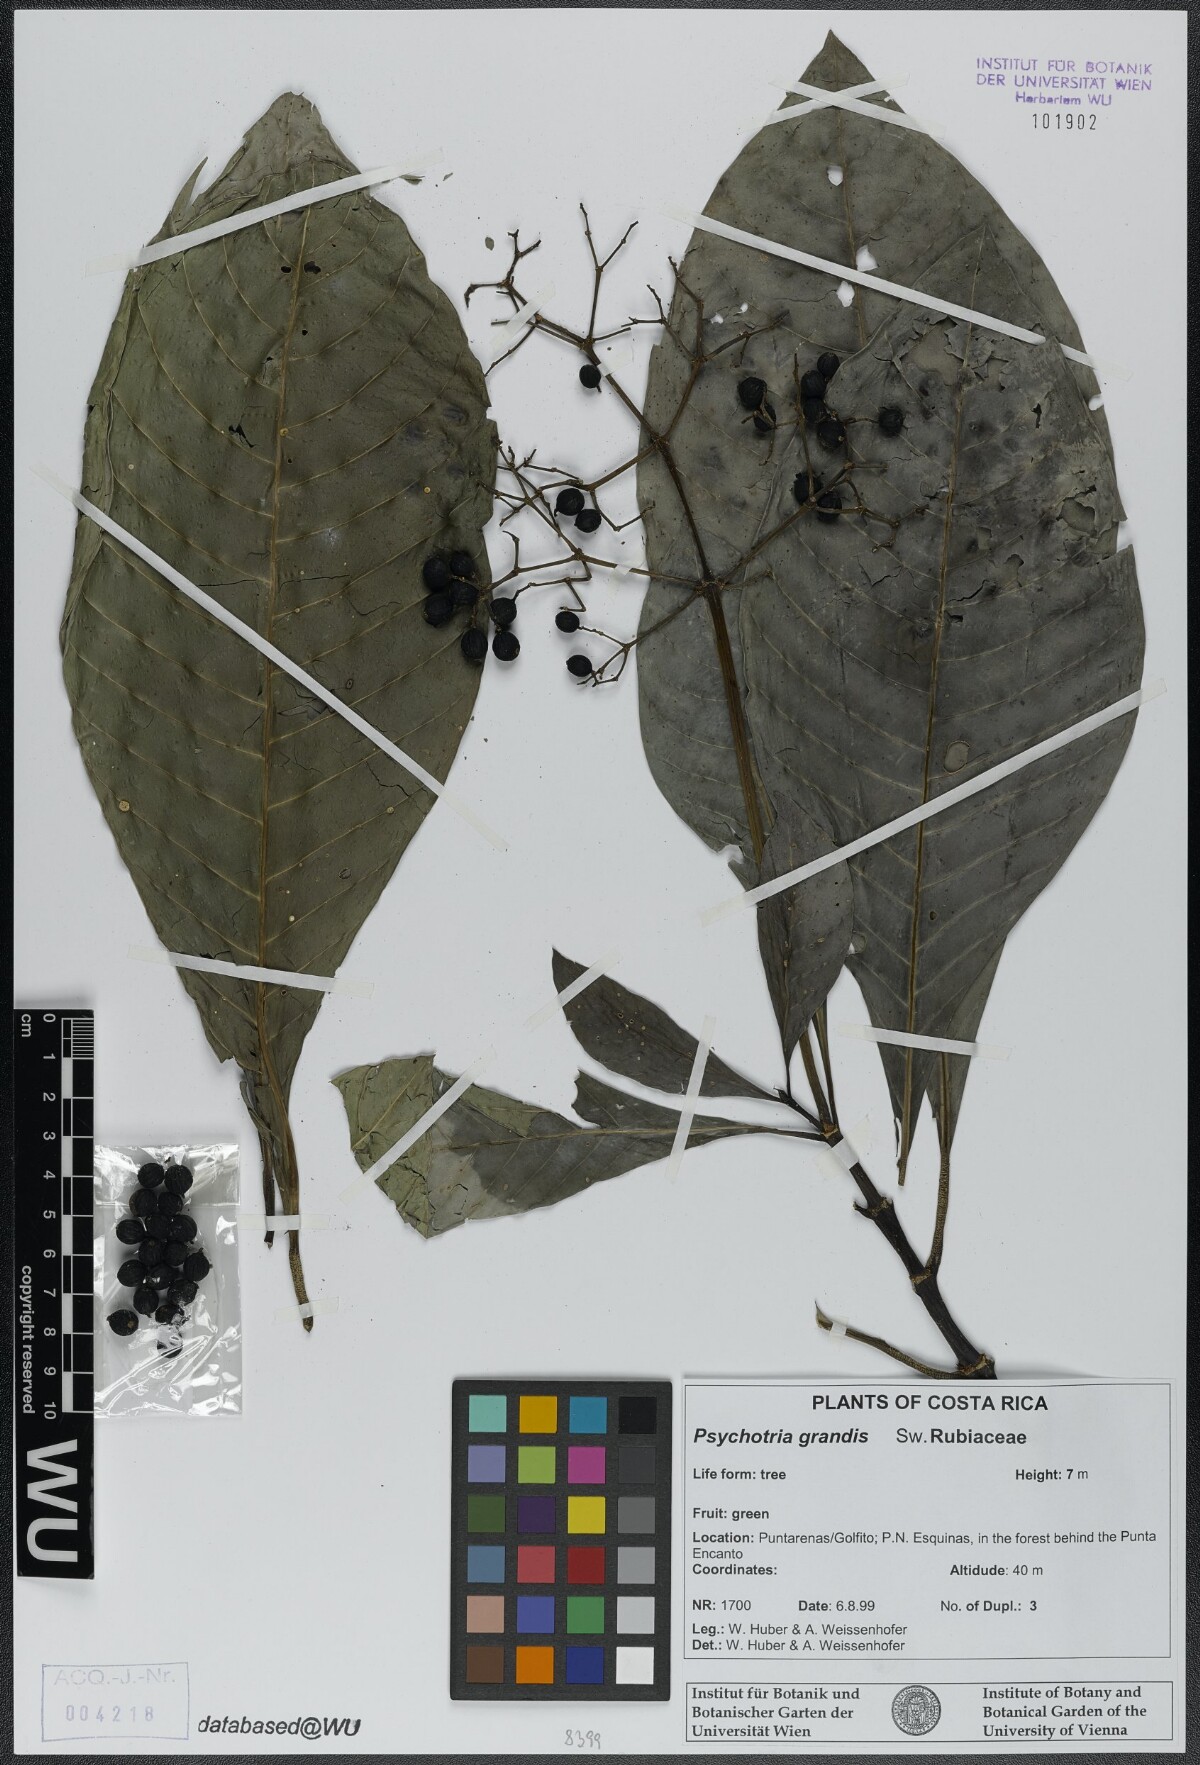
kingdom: Plantae
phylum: Tracheophyta
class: Magnoliopsida
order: Gentianales
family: Rubiaceae
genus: Psychotria
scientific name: Psychotria grandis
